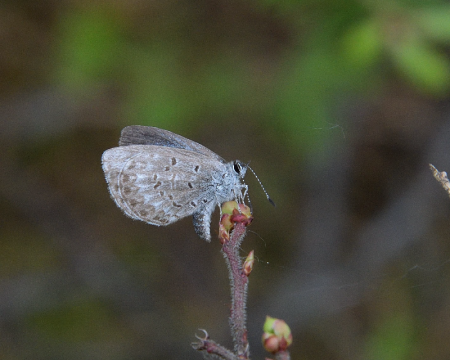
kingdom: Animalia
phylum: Arthropoda
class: Insecta
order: Lepidoptera
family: Lycaenidae
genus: Celastrina
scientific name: Celastrina lucia
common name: Northern Spring Azure
